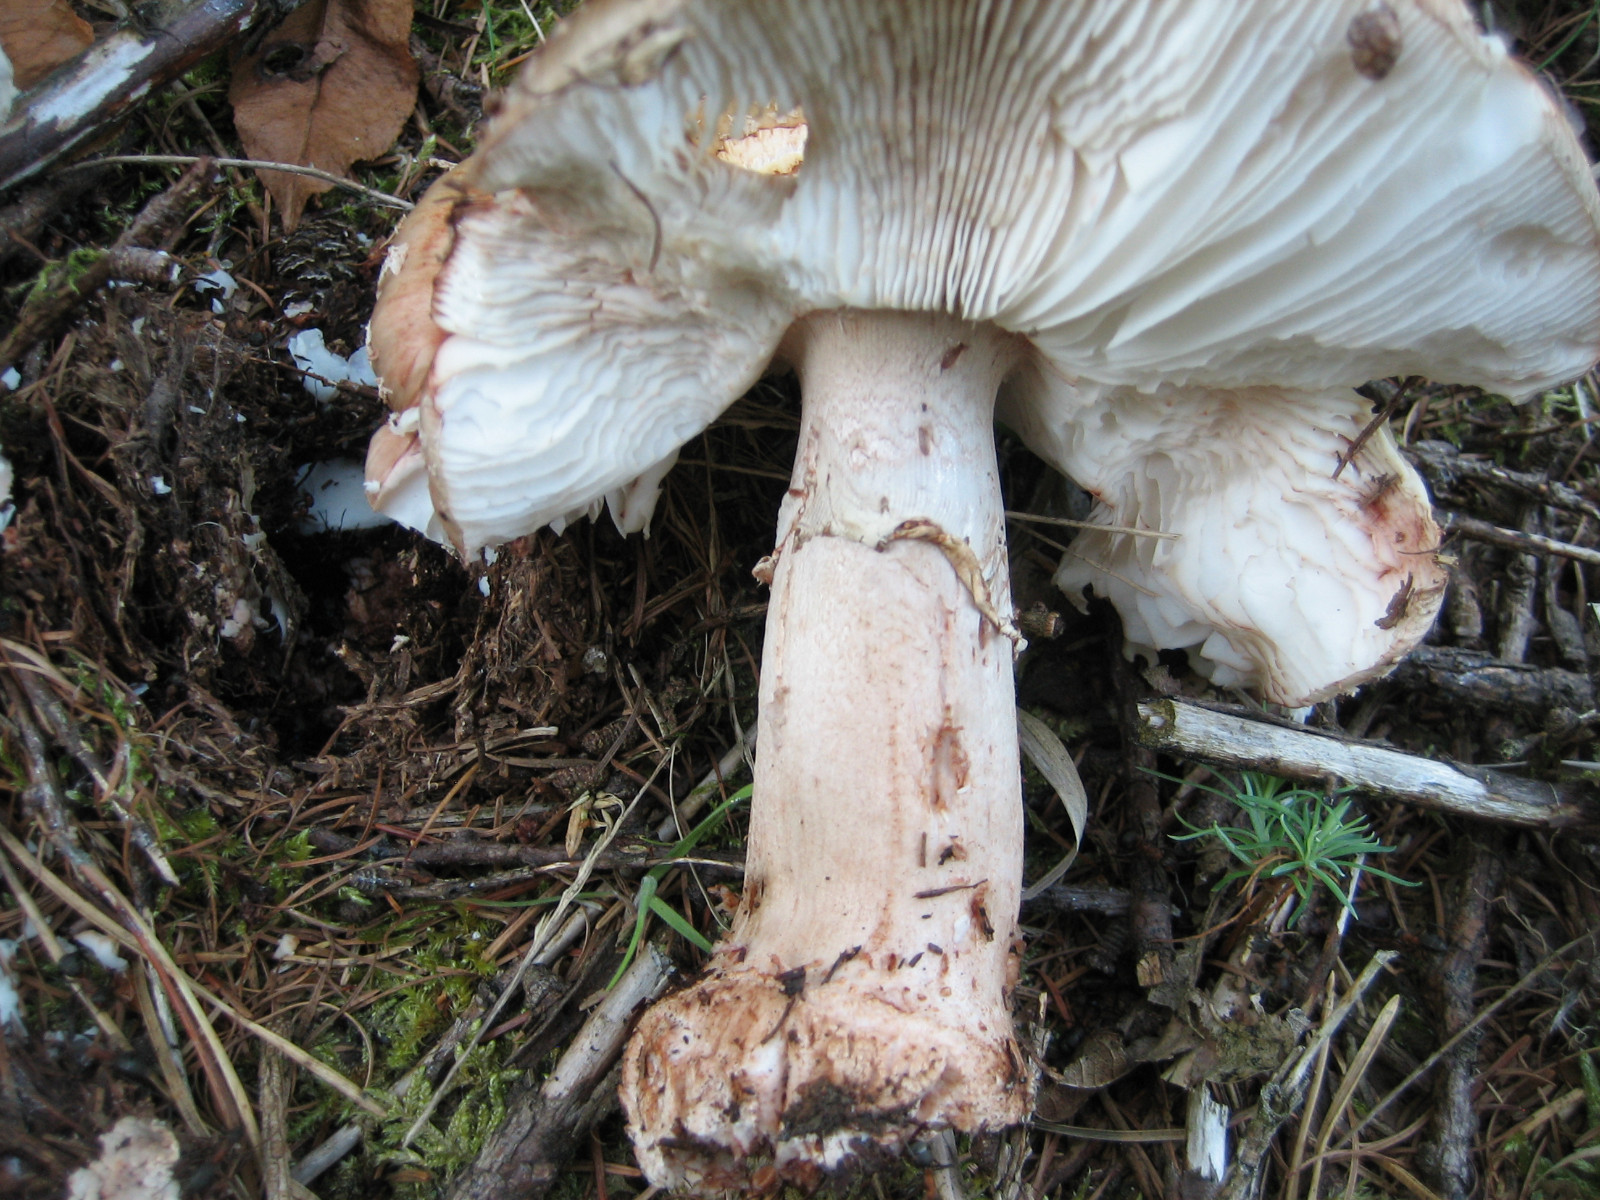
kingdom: Fungi
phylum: Basidiomycota
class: Agaricomycetes
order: Agaricales
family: Amanitaceae
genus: Amanita
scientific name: Amanita rubescens
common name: rødmende fluesvamp
